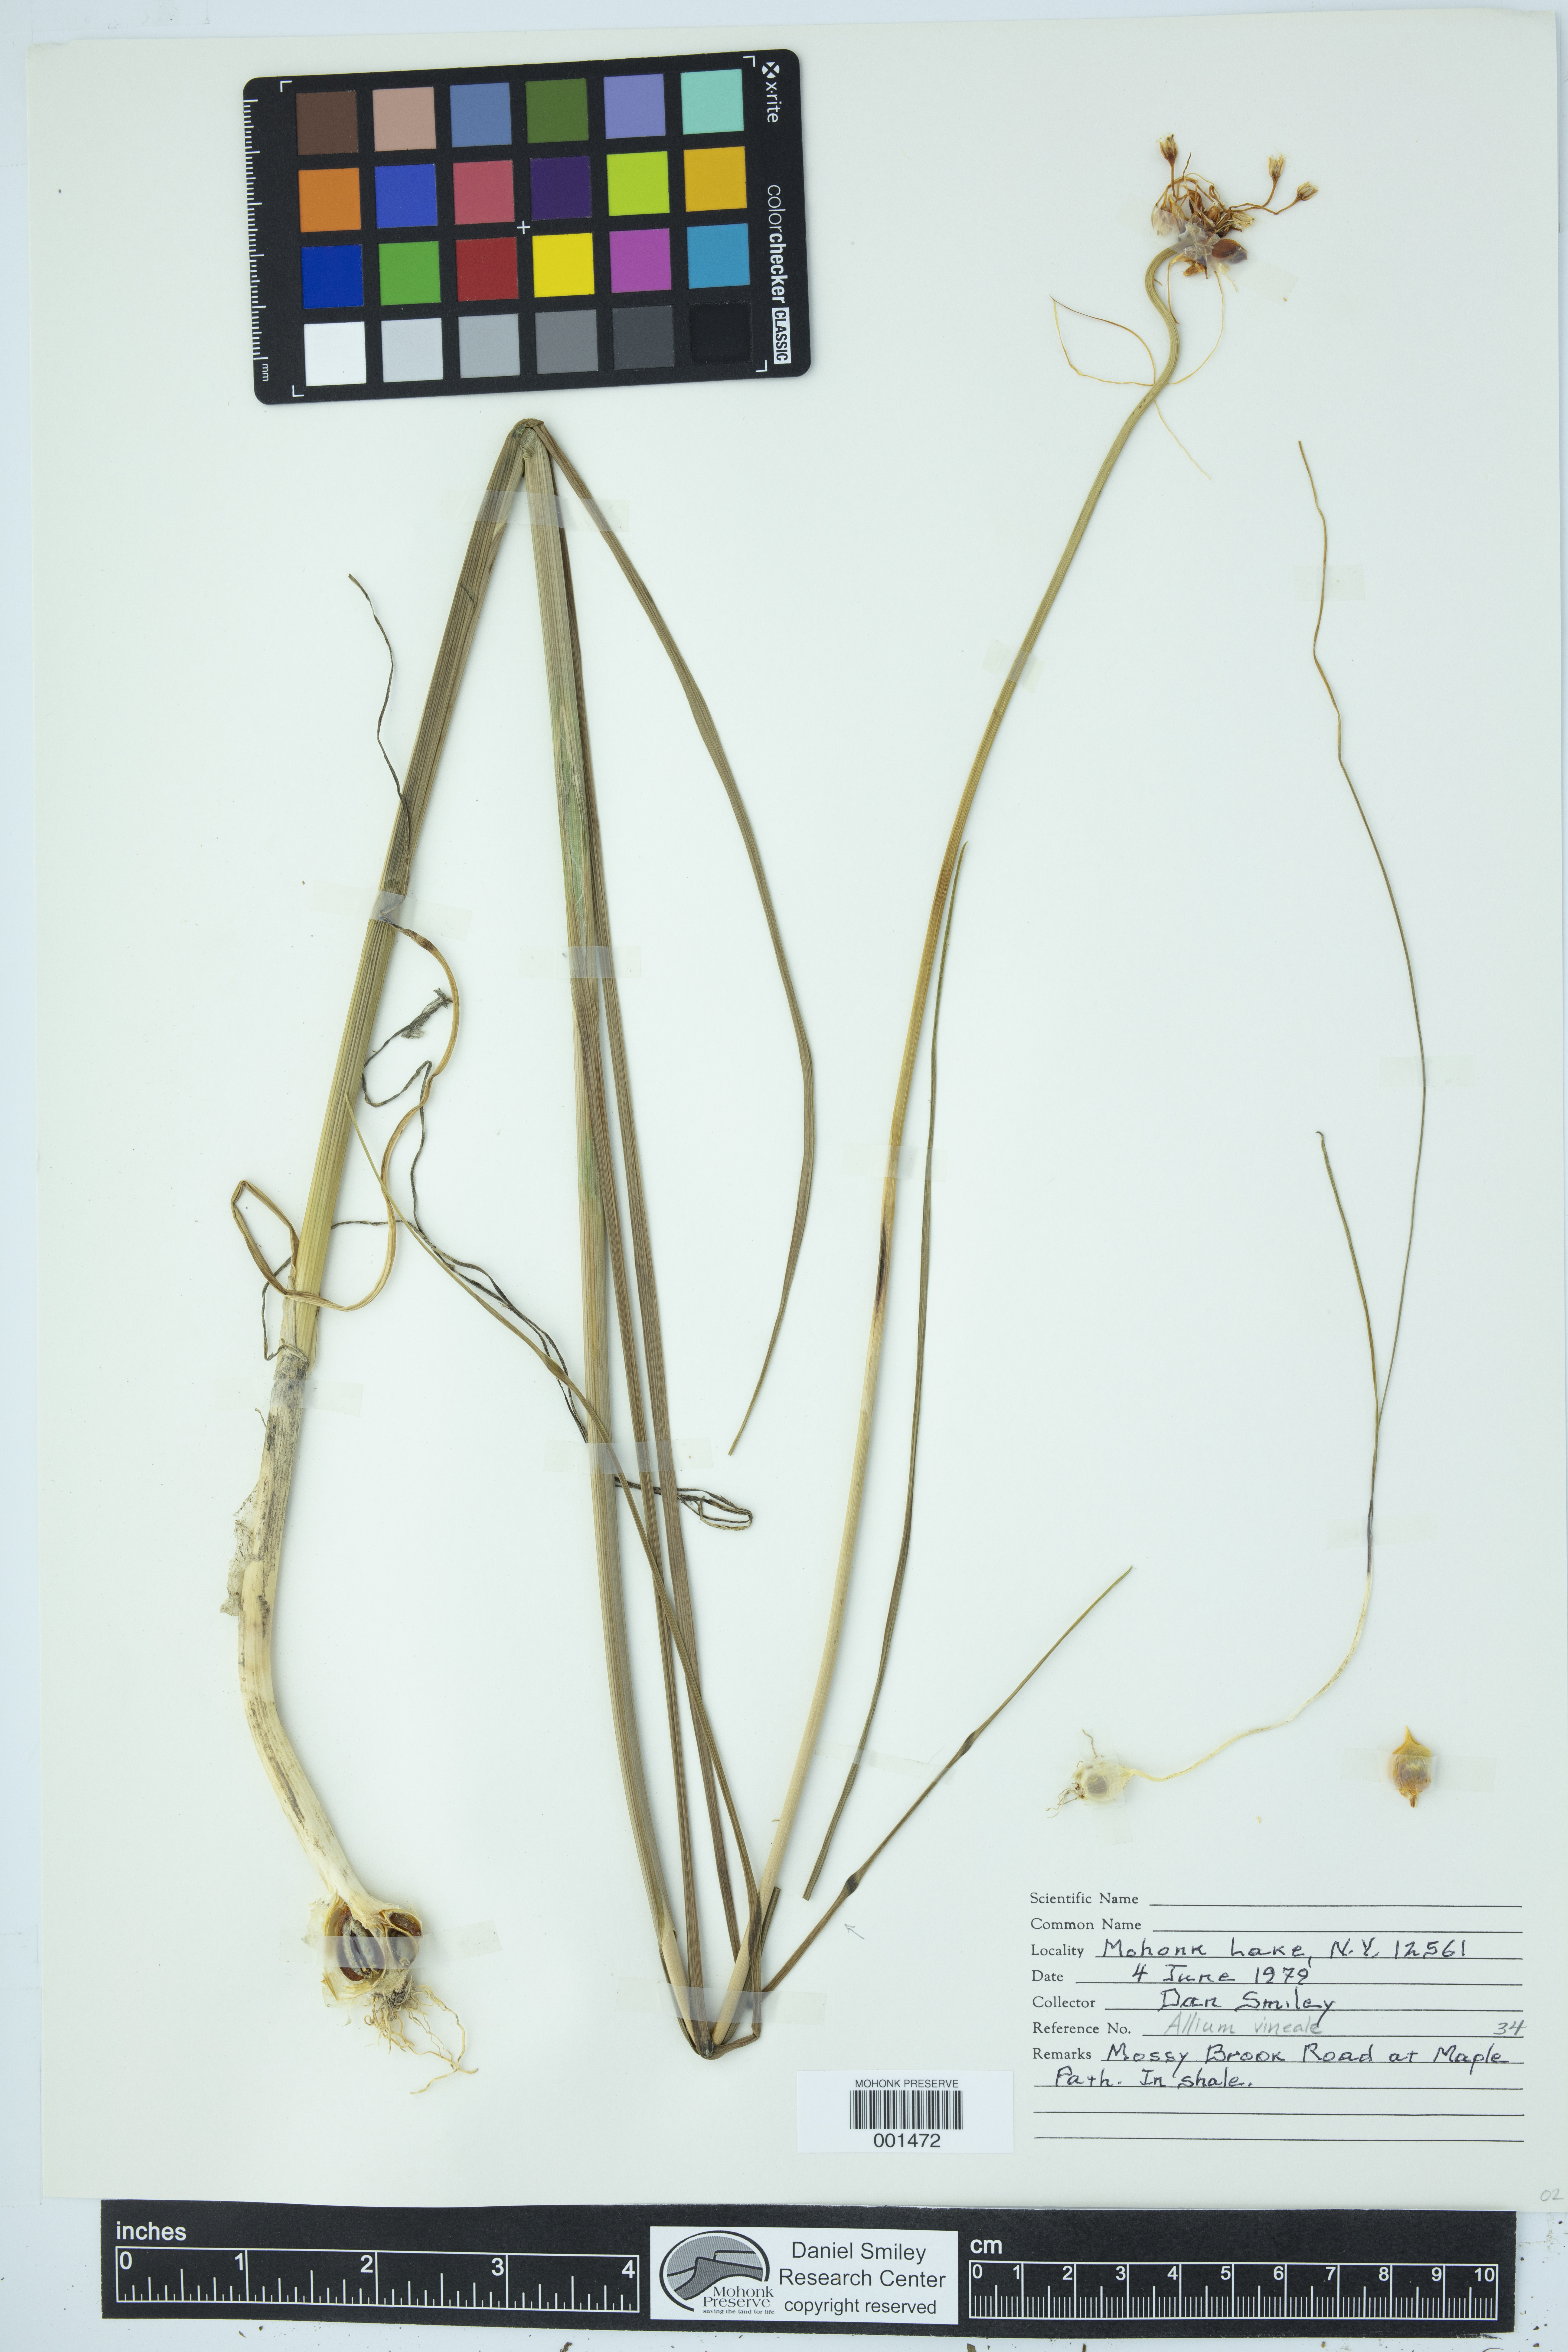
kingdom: Plantae
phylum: Tracheophyta
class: Liliopsida
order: Asparagales
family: Amaryllidaceae
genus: Allium
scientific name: Allium vineale
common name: Crow garlic
